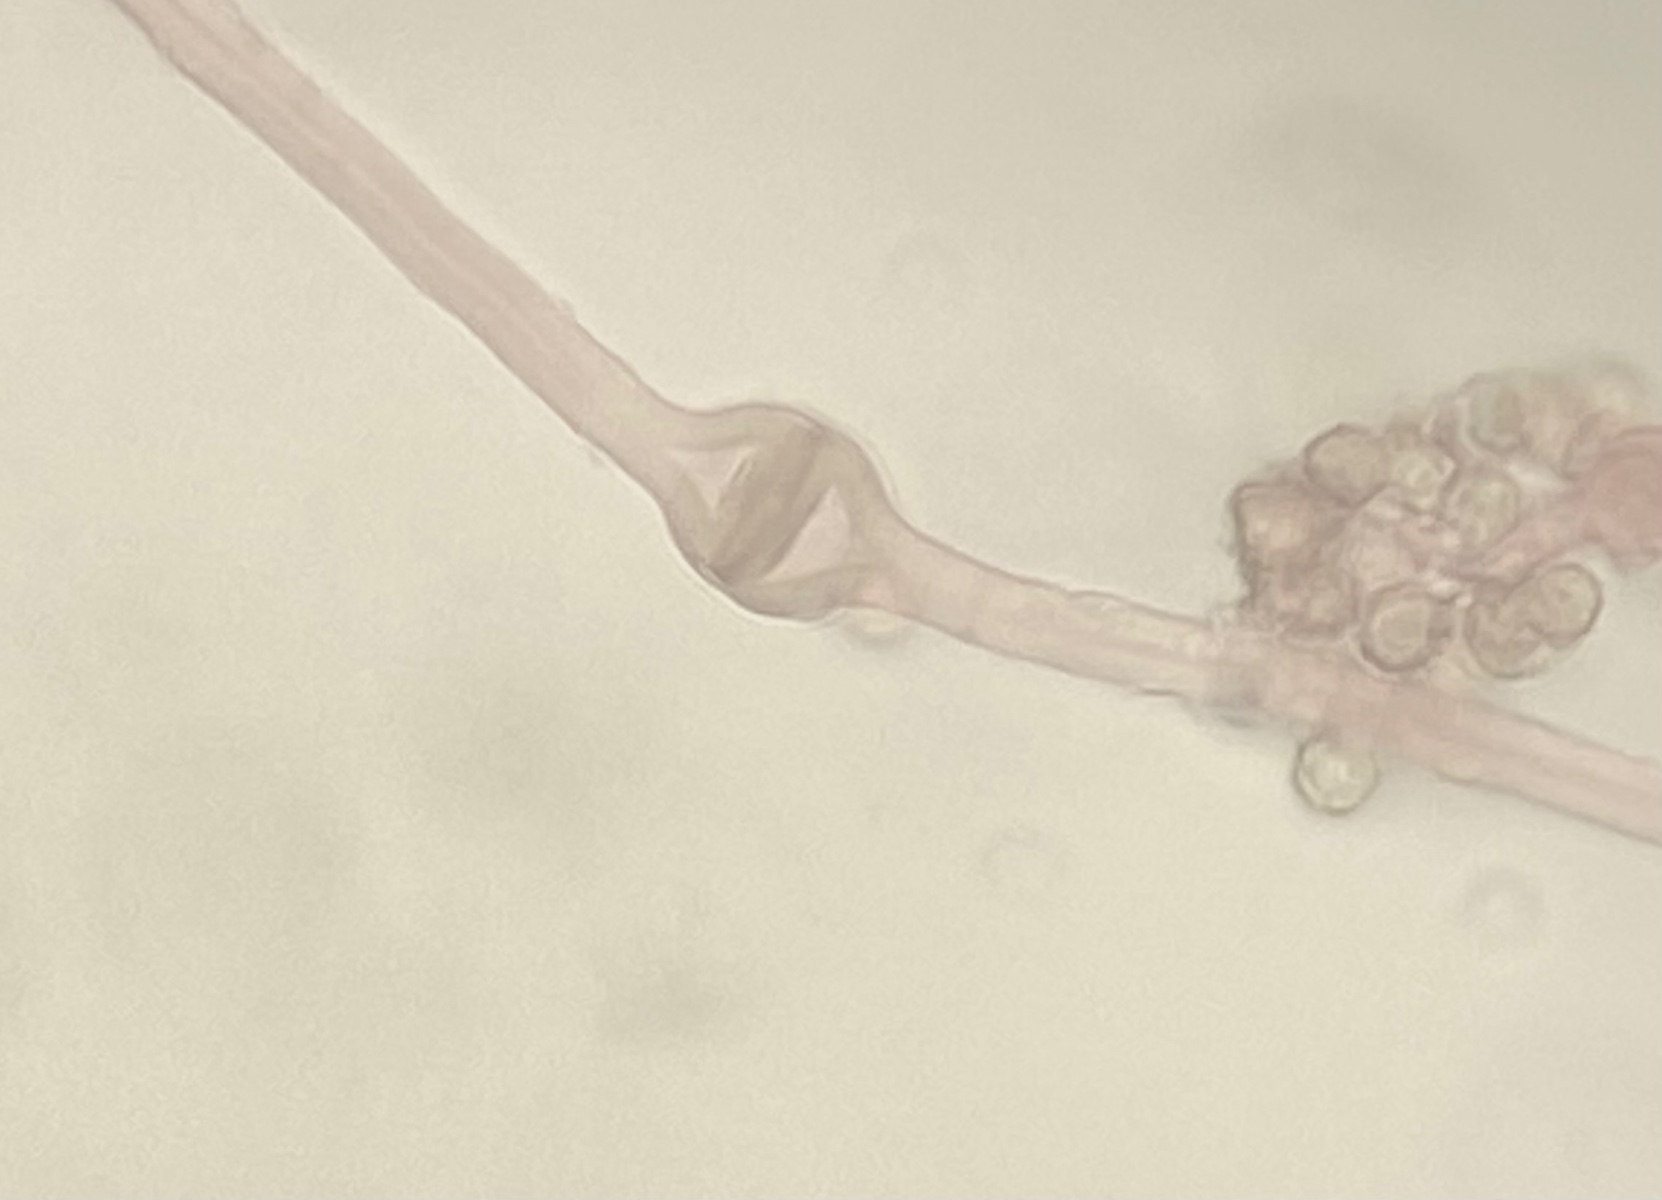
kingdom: Fungi
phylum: Basidiomycota
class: Agaricomycetes
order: Agaricales
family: Agaricaceae
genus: Tulostoma
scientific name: Tulostoma brumale
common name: vinter-stilkbovist
